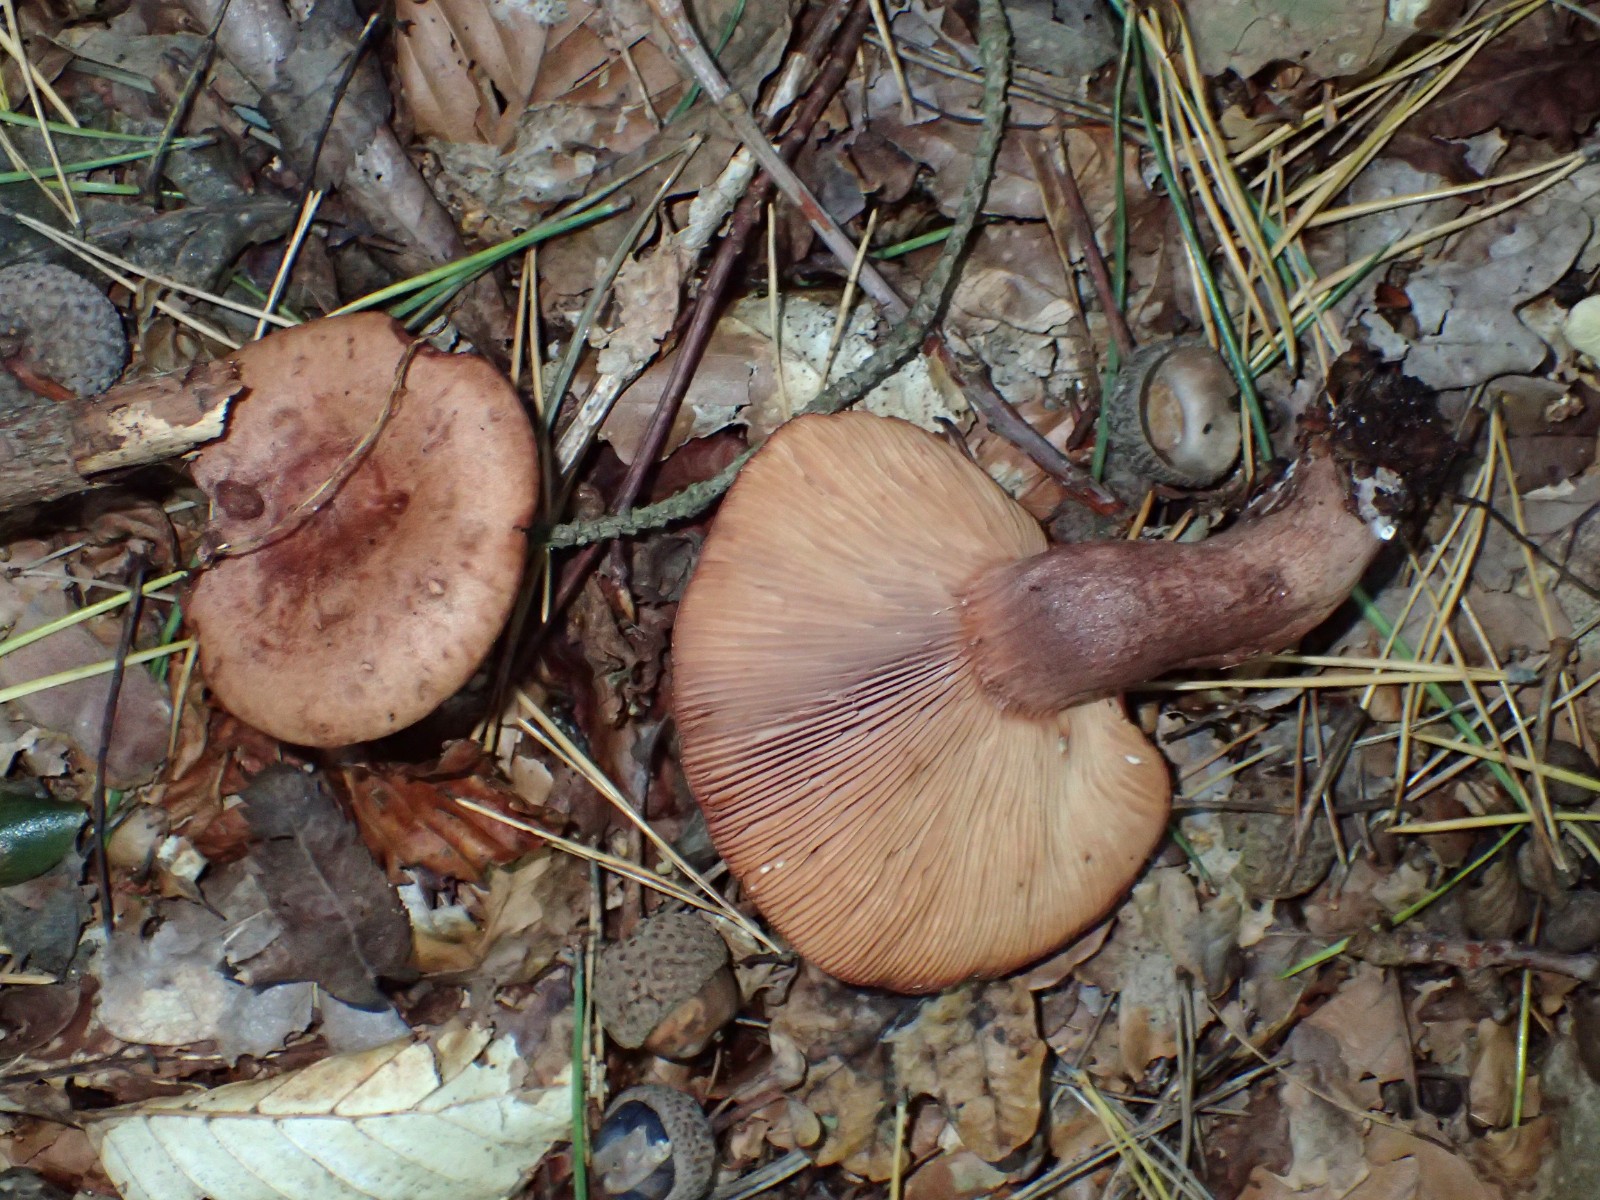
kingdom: Fungi
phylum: Basidiomycota
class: Agaricomycetes
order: Russulales
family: Russulaceae
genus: Lactarius
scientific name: Lactarius quietus
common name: ege-mælkehat
